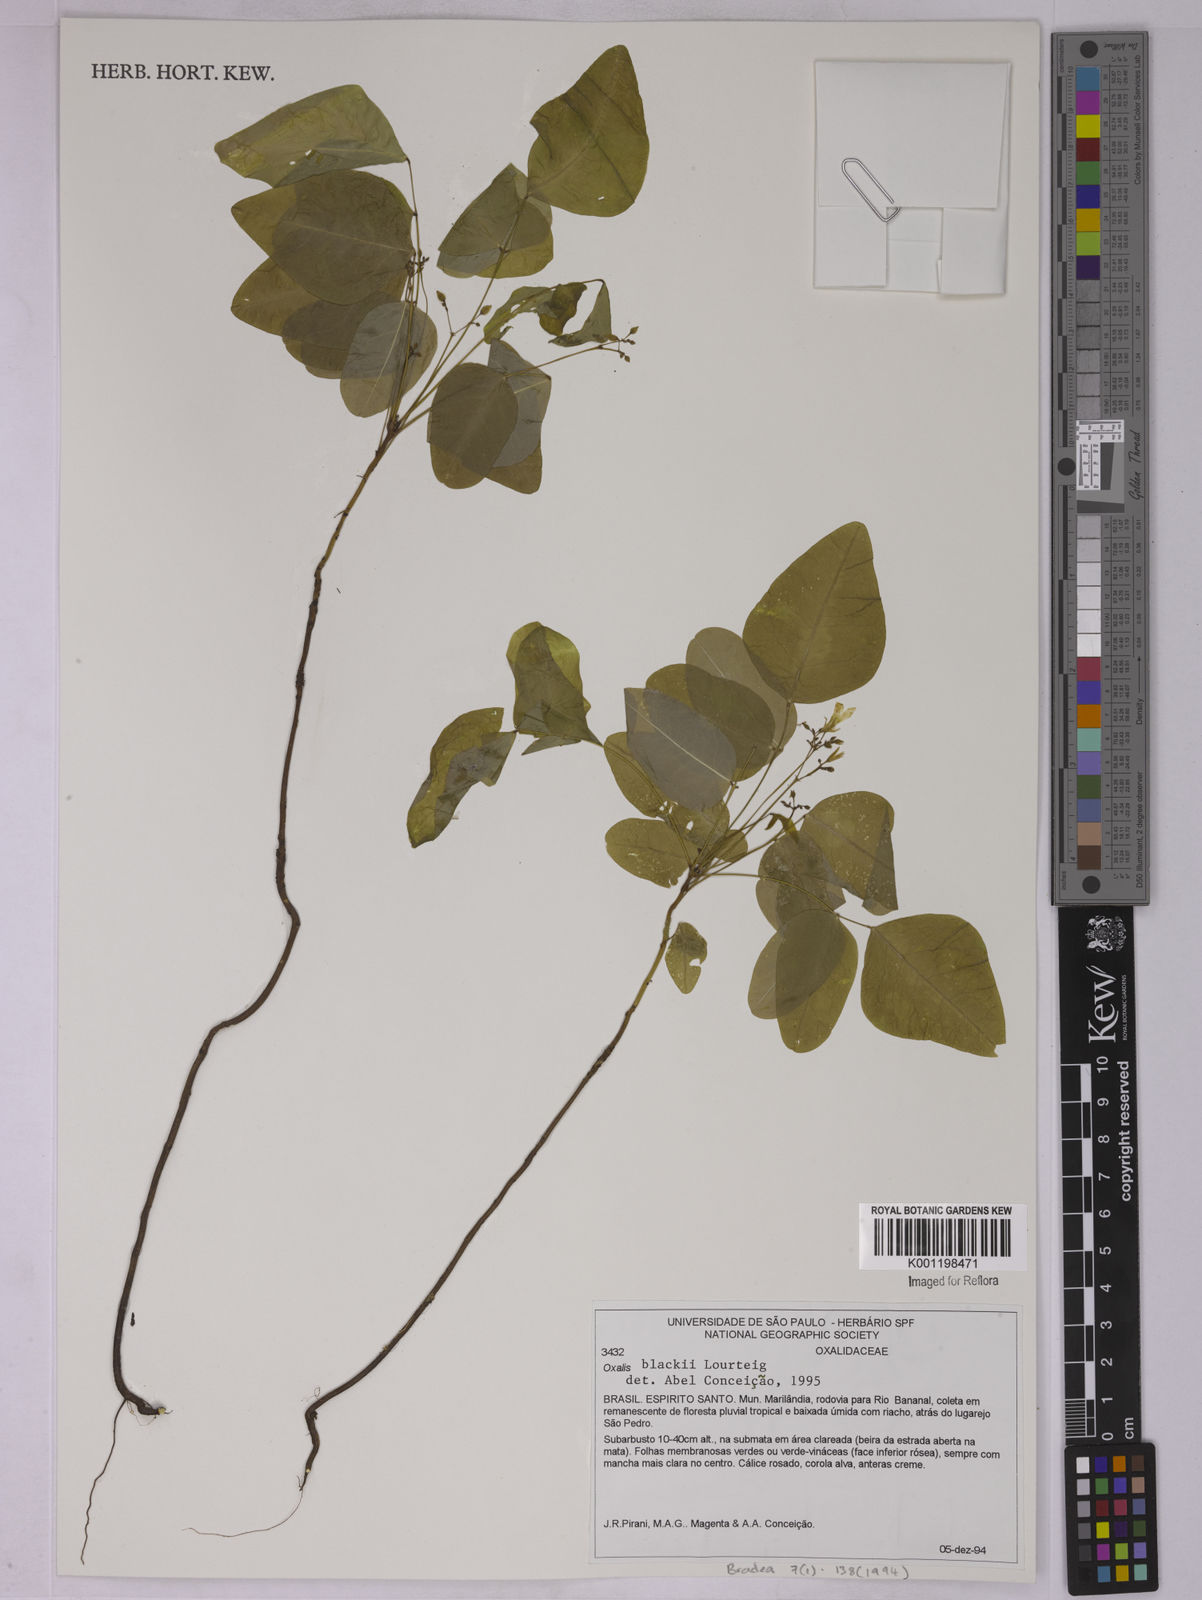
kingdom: Plantae
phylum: Tracheophyta
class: Magnoliopsida
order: Oxalidales
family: Oxalidaceae
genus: Oxalis
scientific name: Oxalis blackii
